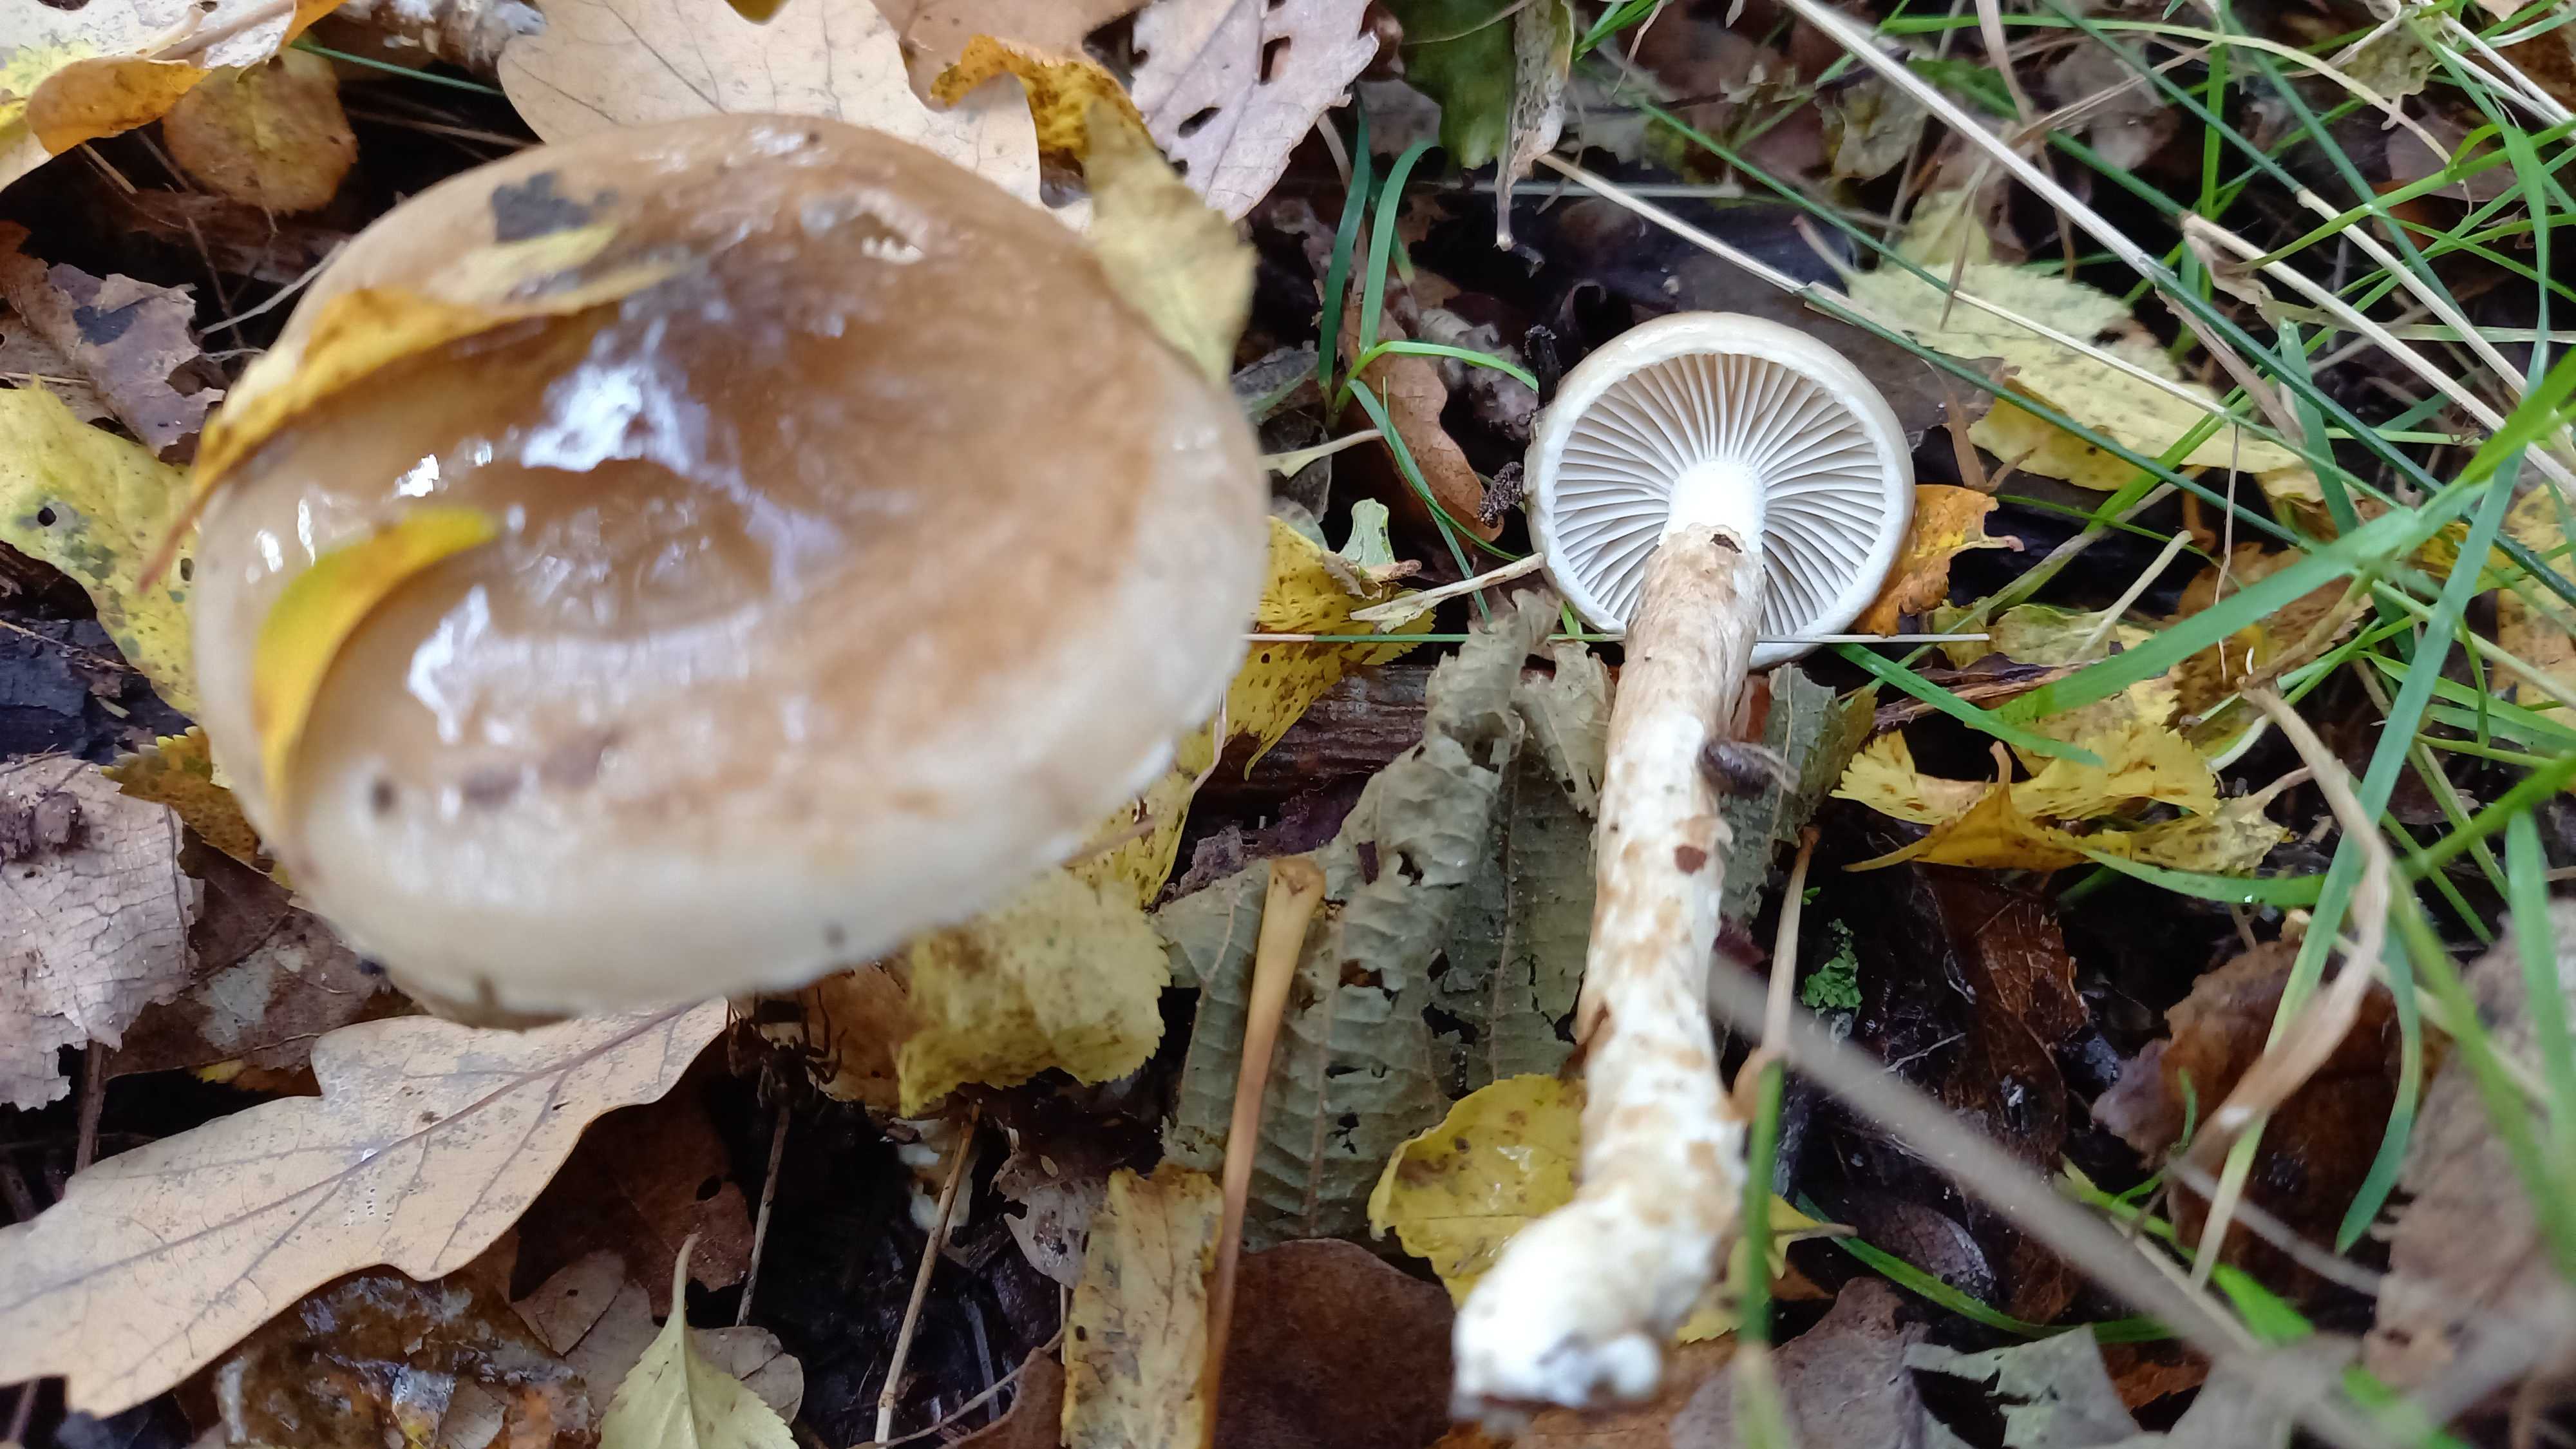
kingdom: Fungi
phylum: Basidiomycota
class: Agaricomycetes
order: Agaricales
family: Hygrophoraceae
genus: Hygrophorus
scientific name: Hygrophorus glutinifer
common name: tvefarvet sneglehat
